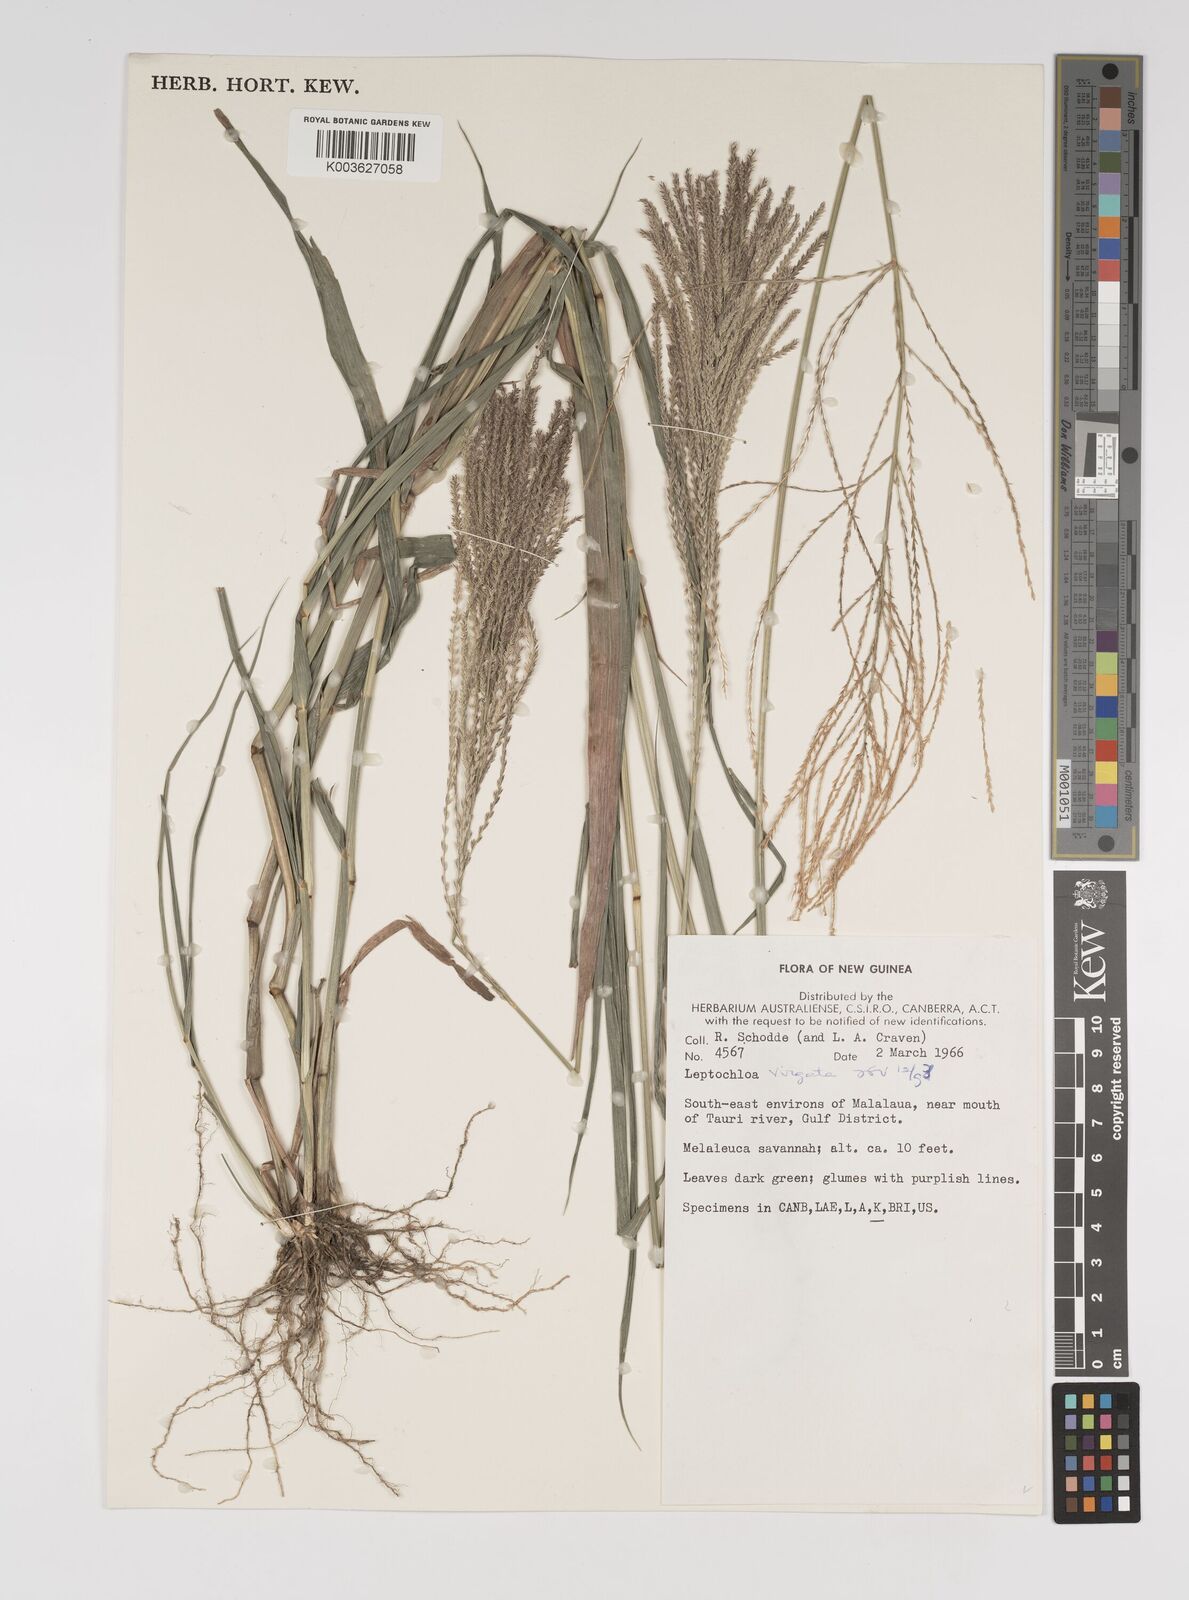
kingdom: Plantae
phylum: Tracheophyta
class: Liliopsida
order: Poales
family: Poaceae
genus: Leptochloa
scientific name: Leptochloa
